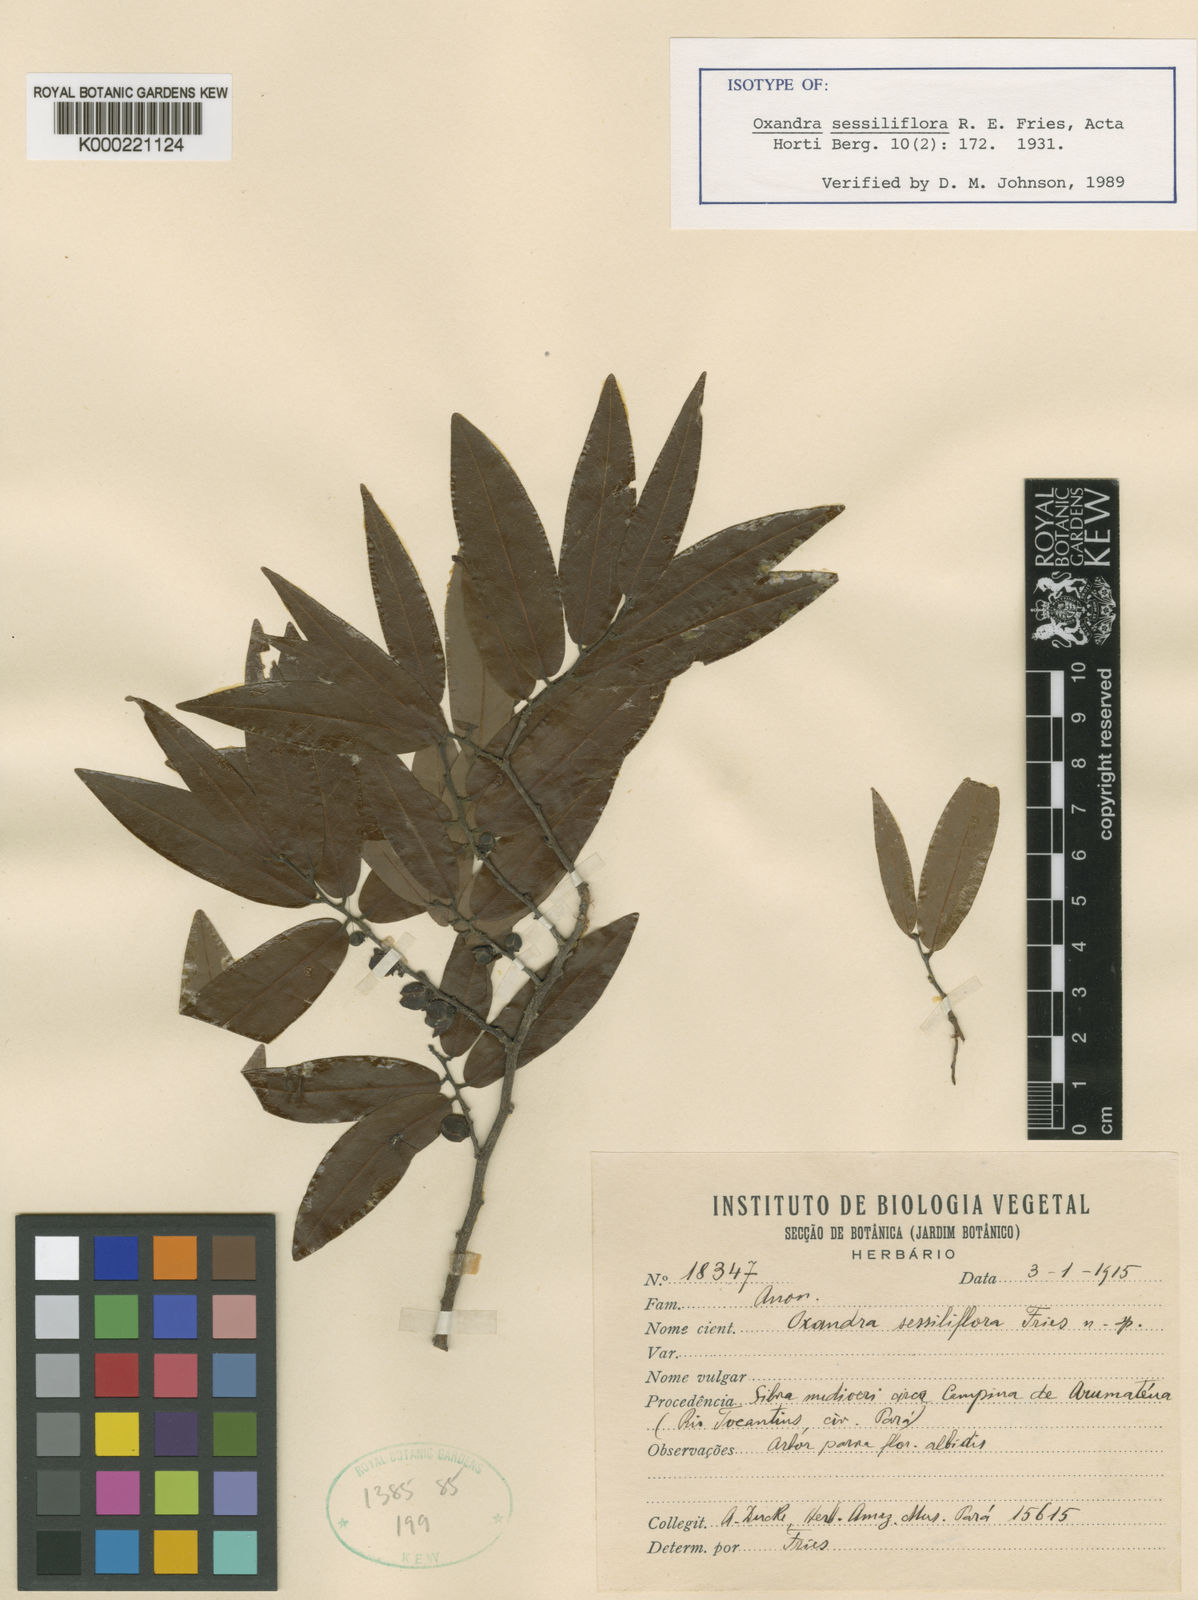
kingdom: Plantae
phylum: Tracheophyta
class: Magnoliopsida
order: Magnoliales
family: Annonaceae
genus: Oxandra
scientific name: Oxandra sessiliflora
